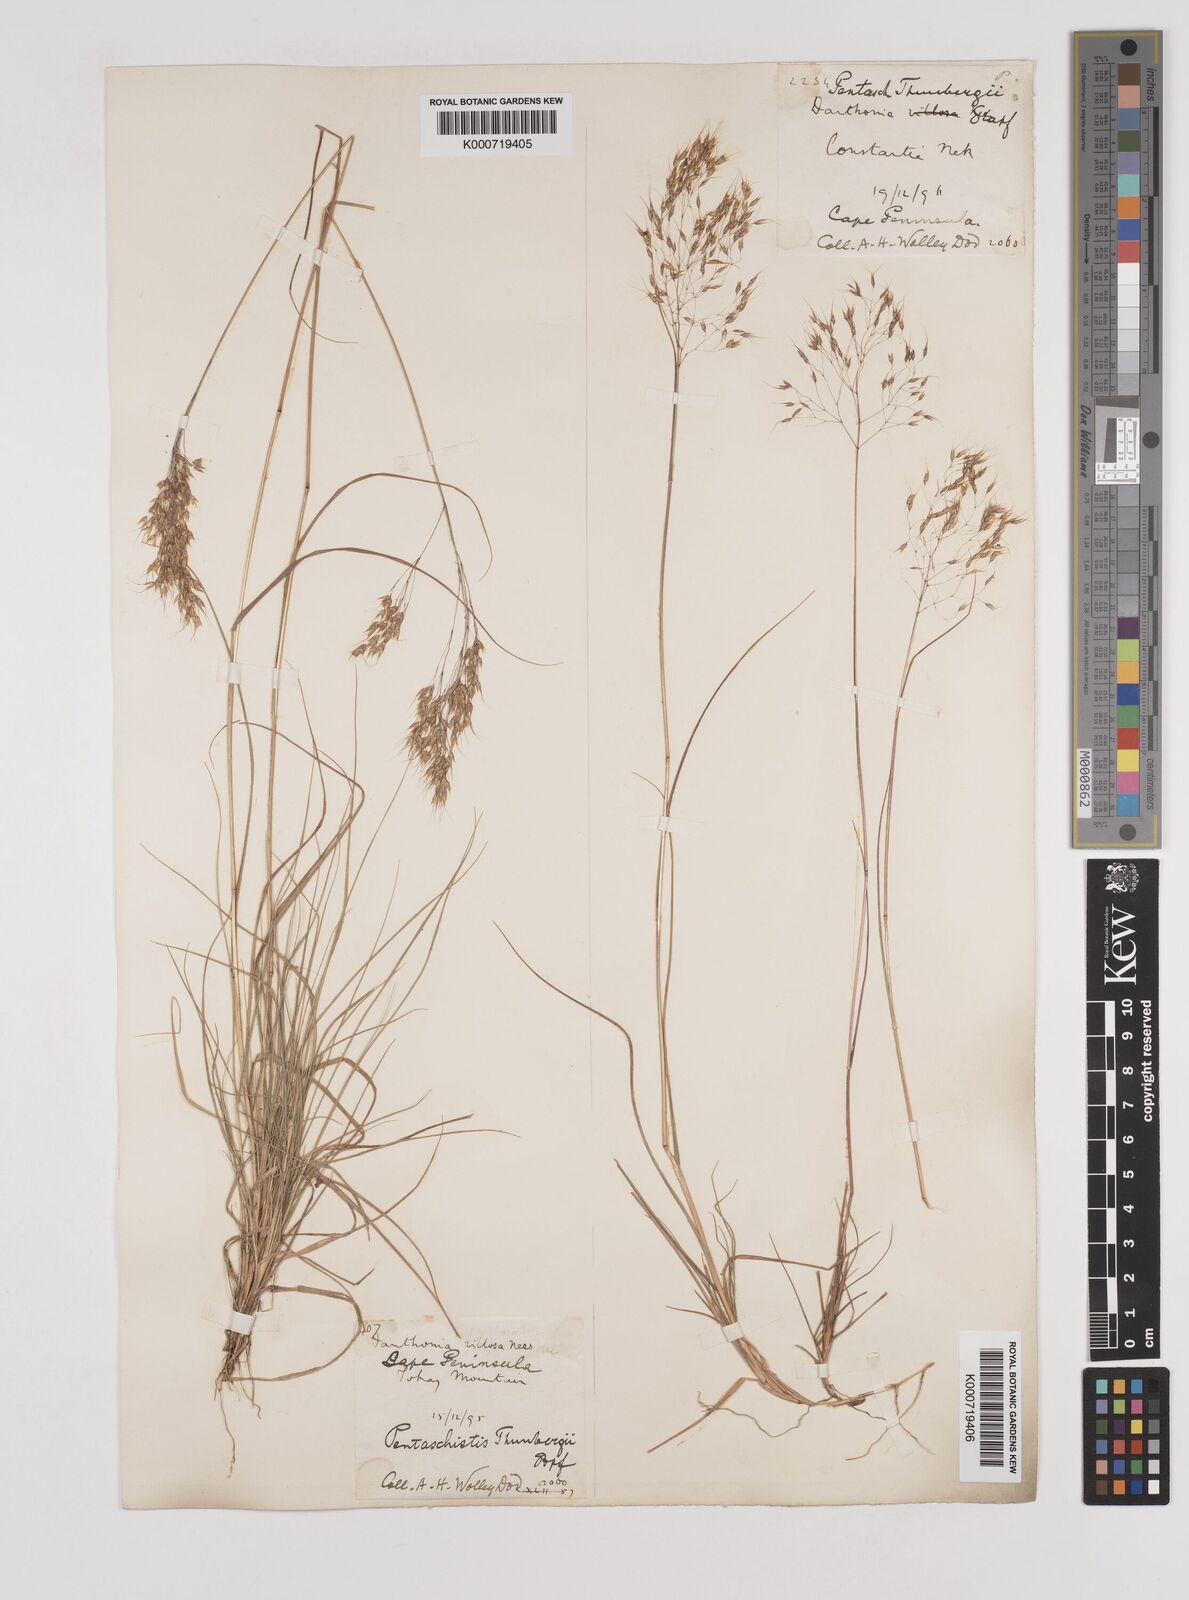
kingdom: Plantae
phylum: Tracheophyta
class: Liliopsida
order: Poales
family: Poaceae
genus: Pentameris
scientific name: Pentameris triseta
